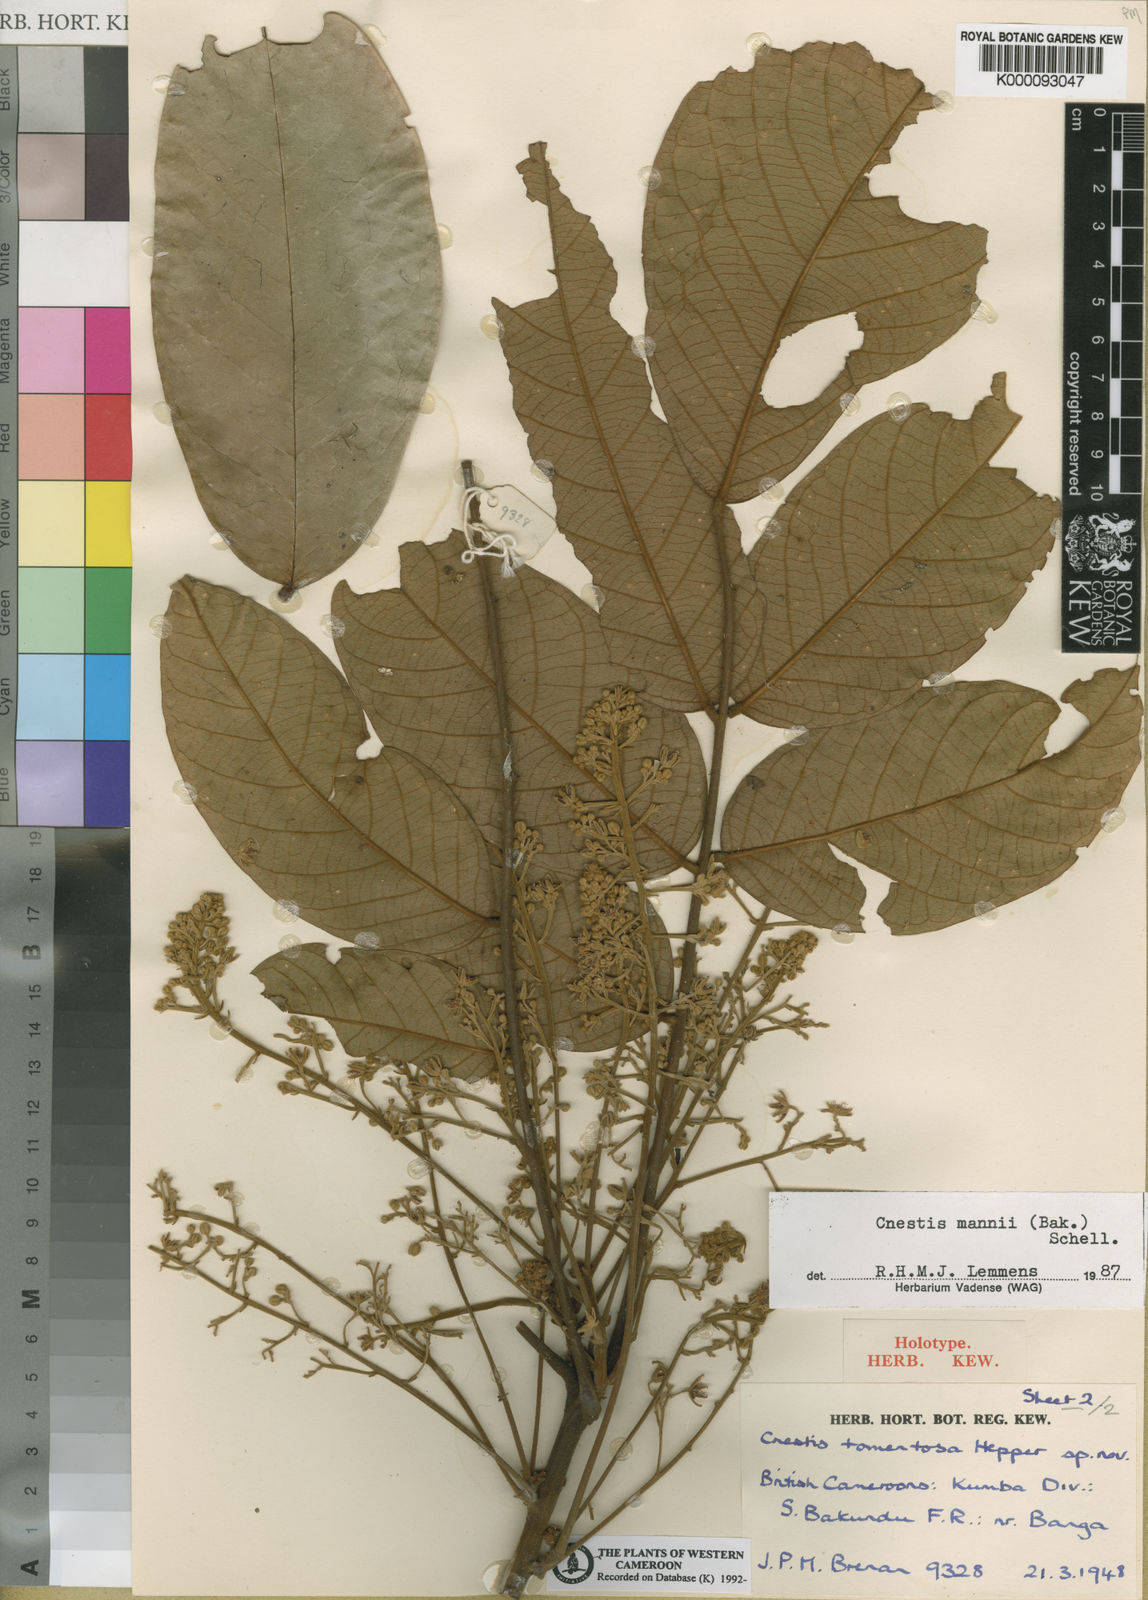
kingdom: Plantae
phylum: Tracheophyta
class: Magnoliopsida
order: Oxalidales
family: Connaraceae
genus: Cnestis
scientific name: Cnestis mannii
